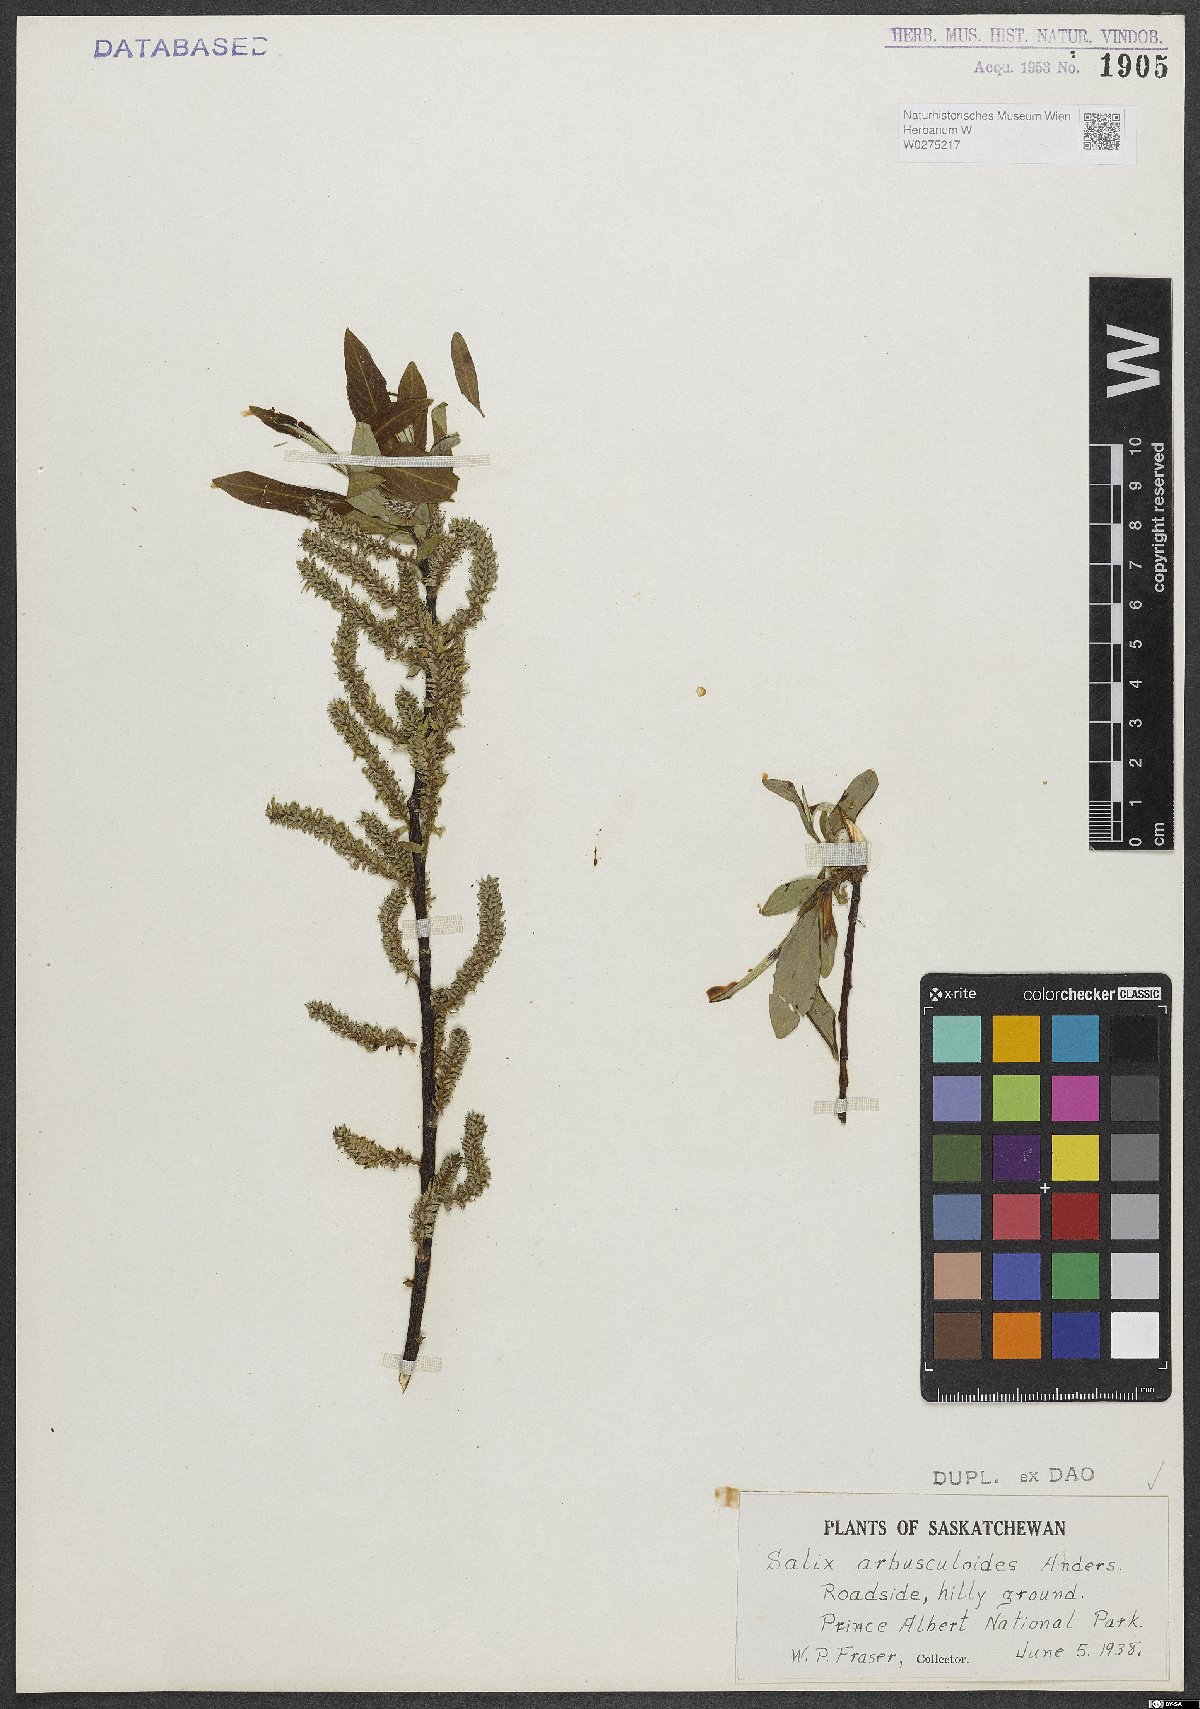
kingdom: Plantae
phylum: Tracheophyta
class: Magnoliopsida
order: Malpighiales
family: Salicaceae
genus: Salix
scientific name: Salix arbusculoides
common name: Little-tree willow
